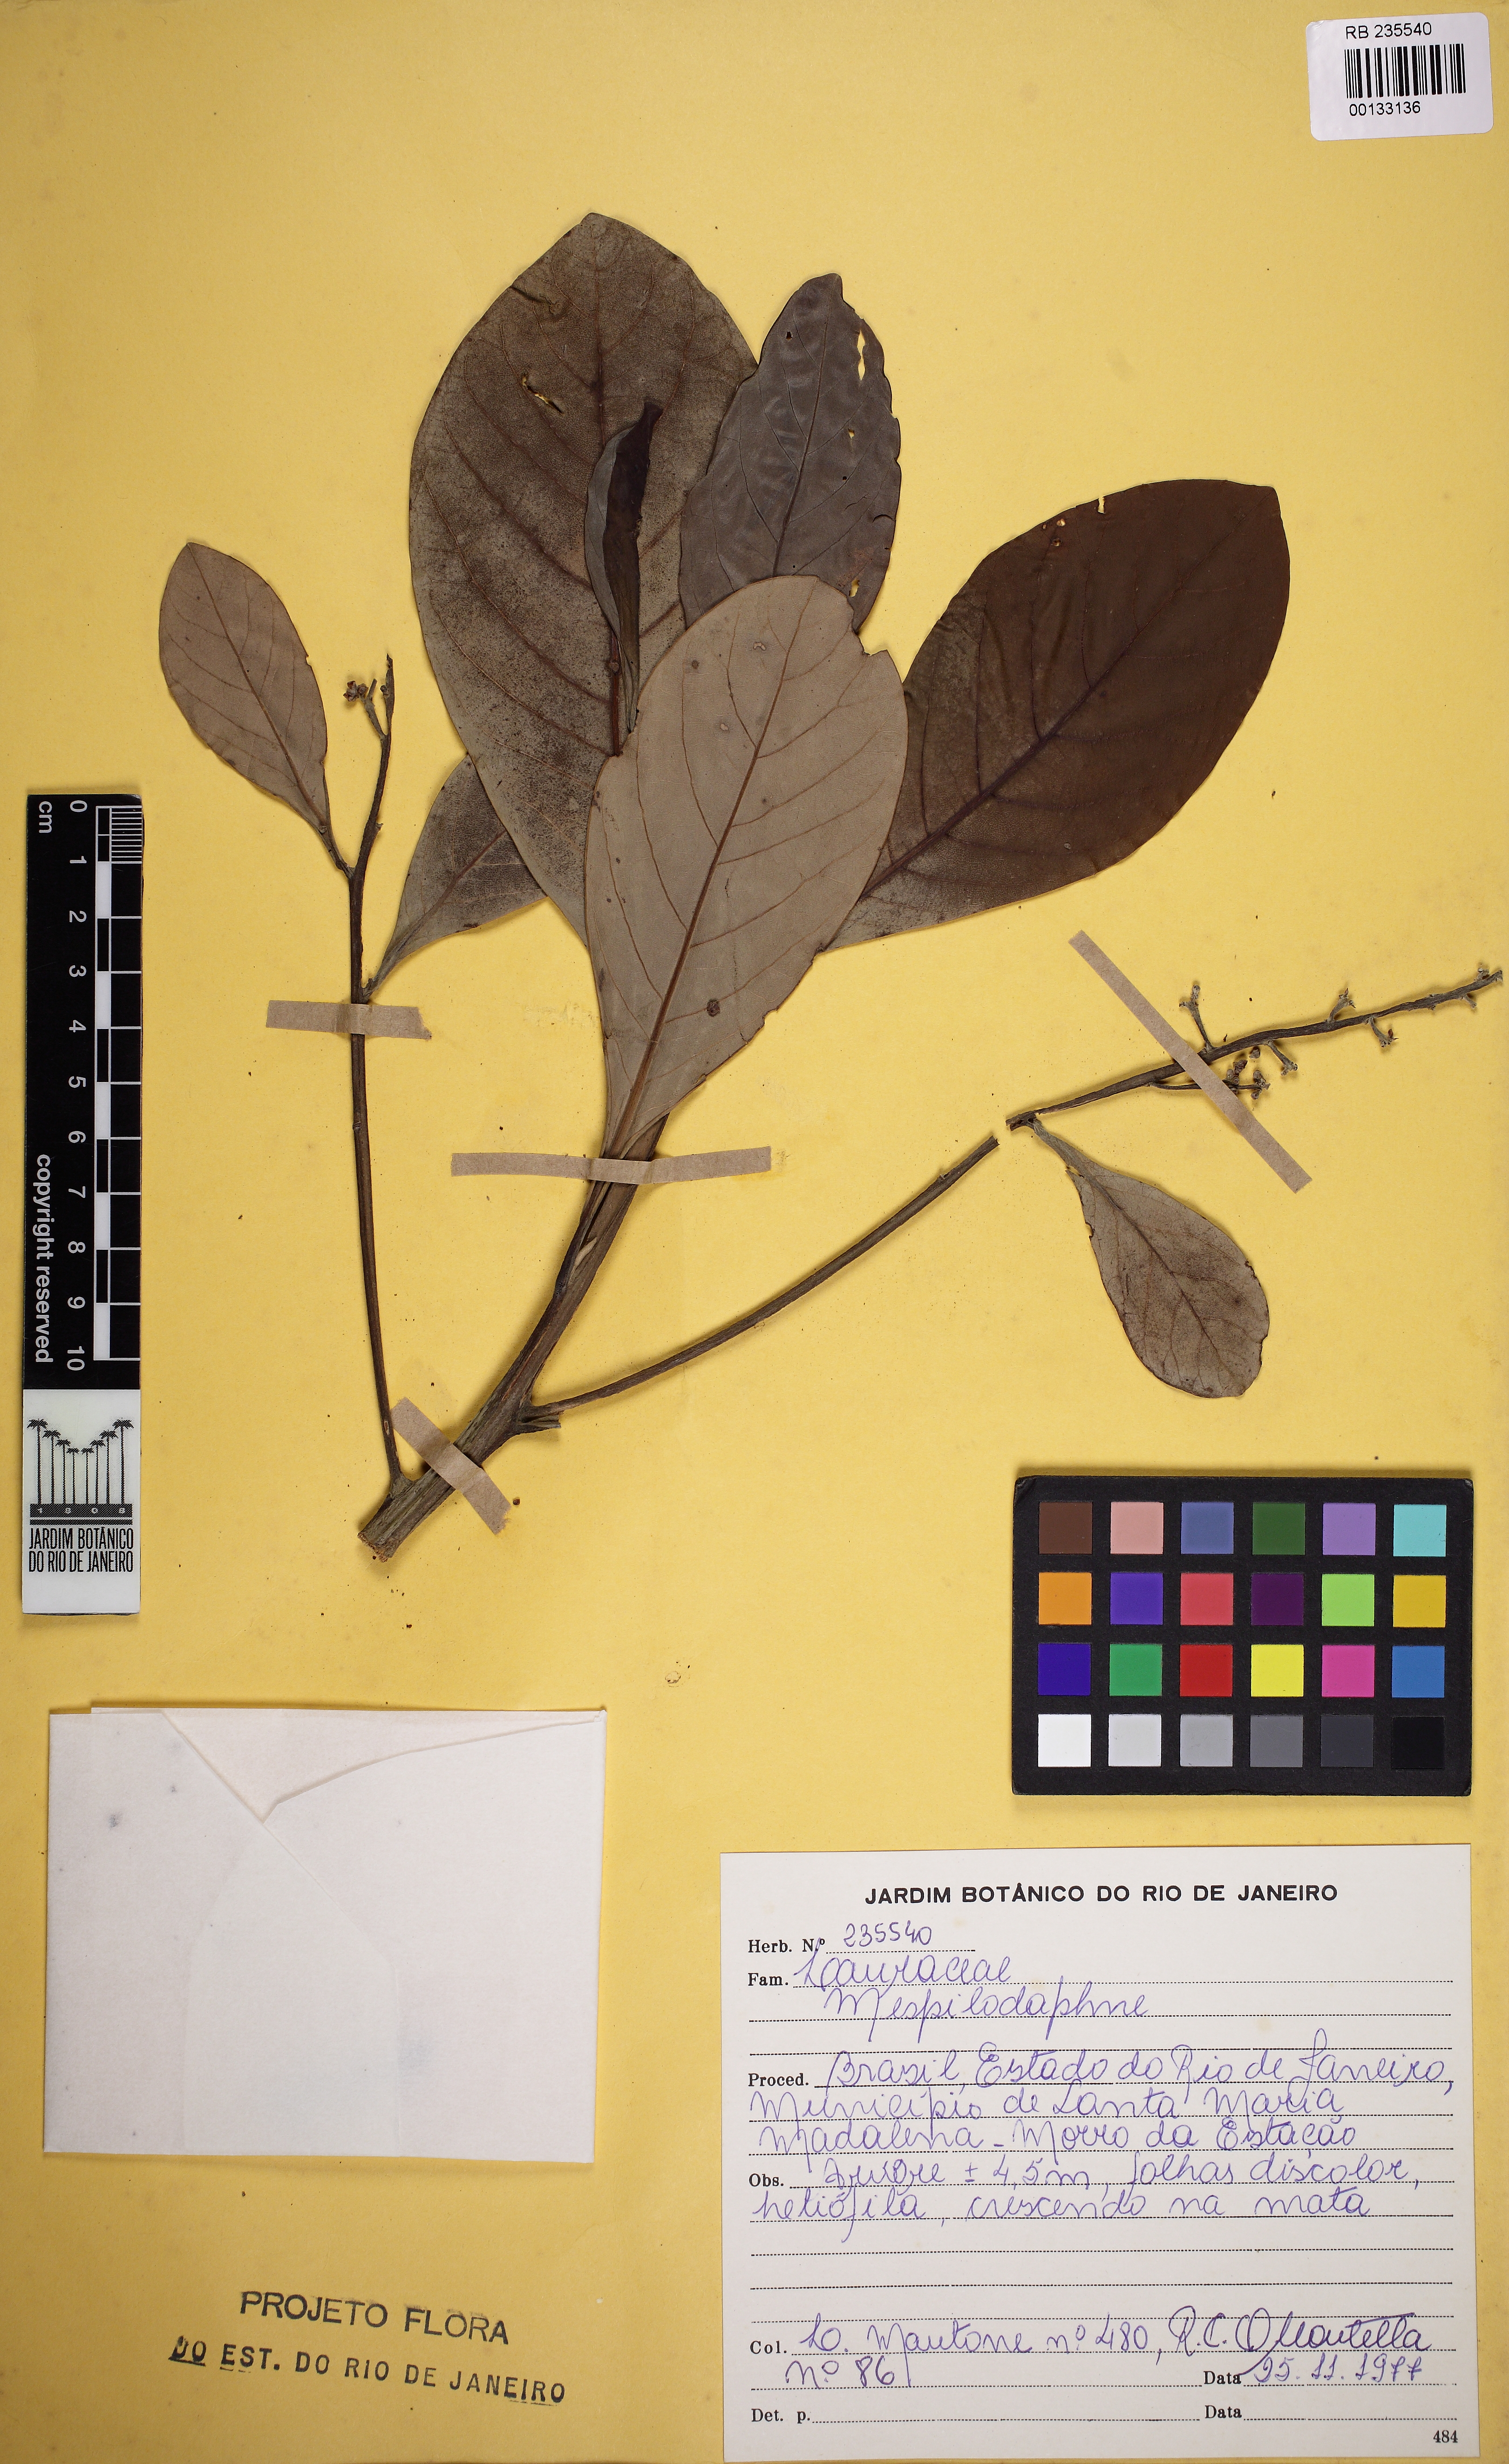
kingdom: Plantae
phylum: Tracheophyta
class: Magnoliopsida
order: Laurales
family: Lauraceae
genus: Mespilodaphne
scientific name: Mespilodaphne
